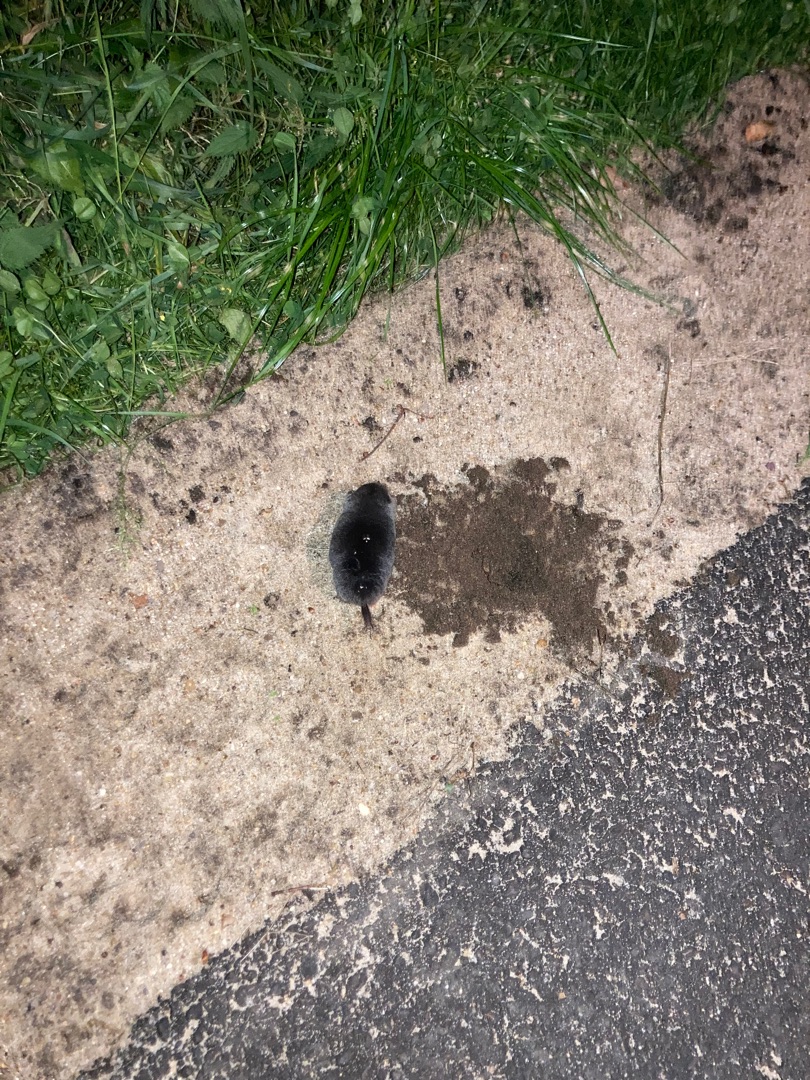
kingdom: Animalia
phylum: Chordata
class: Mammalia
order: Soricomorpha
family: Talpidae
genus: Talpa
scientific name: Talpa europaea
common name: Muldvarp
